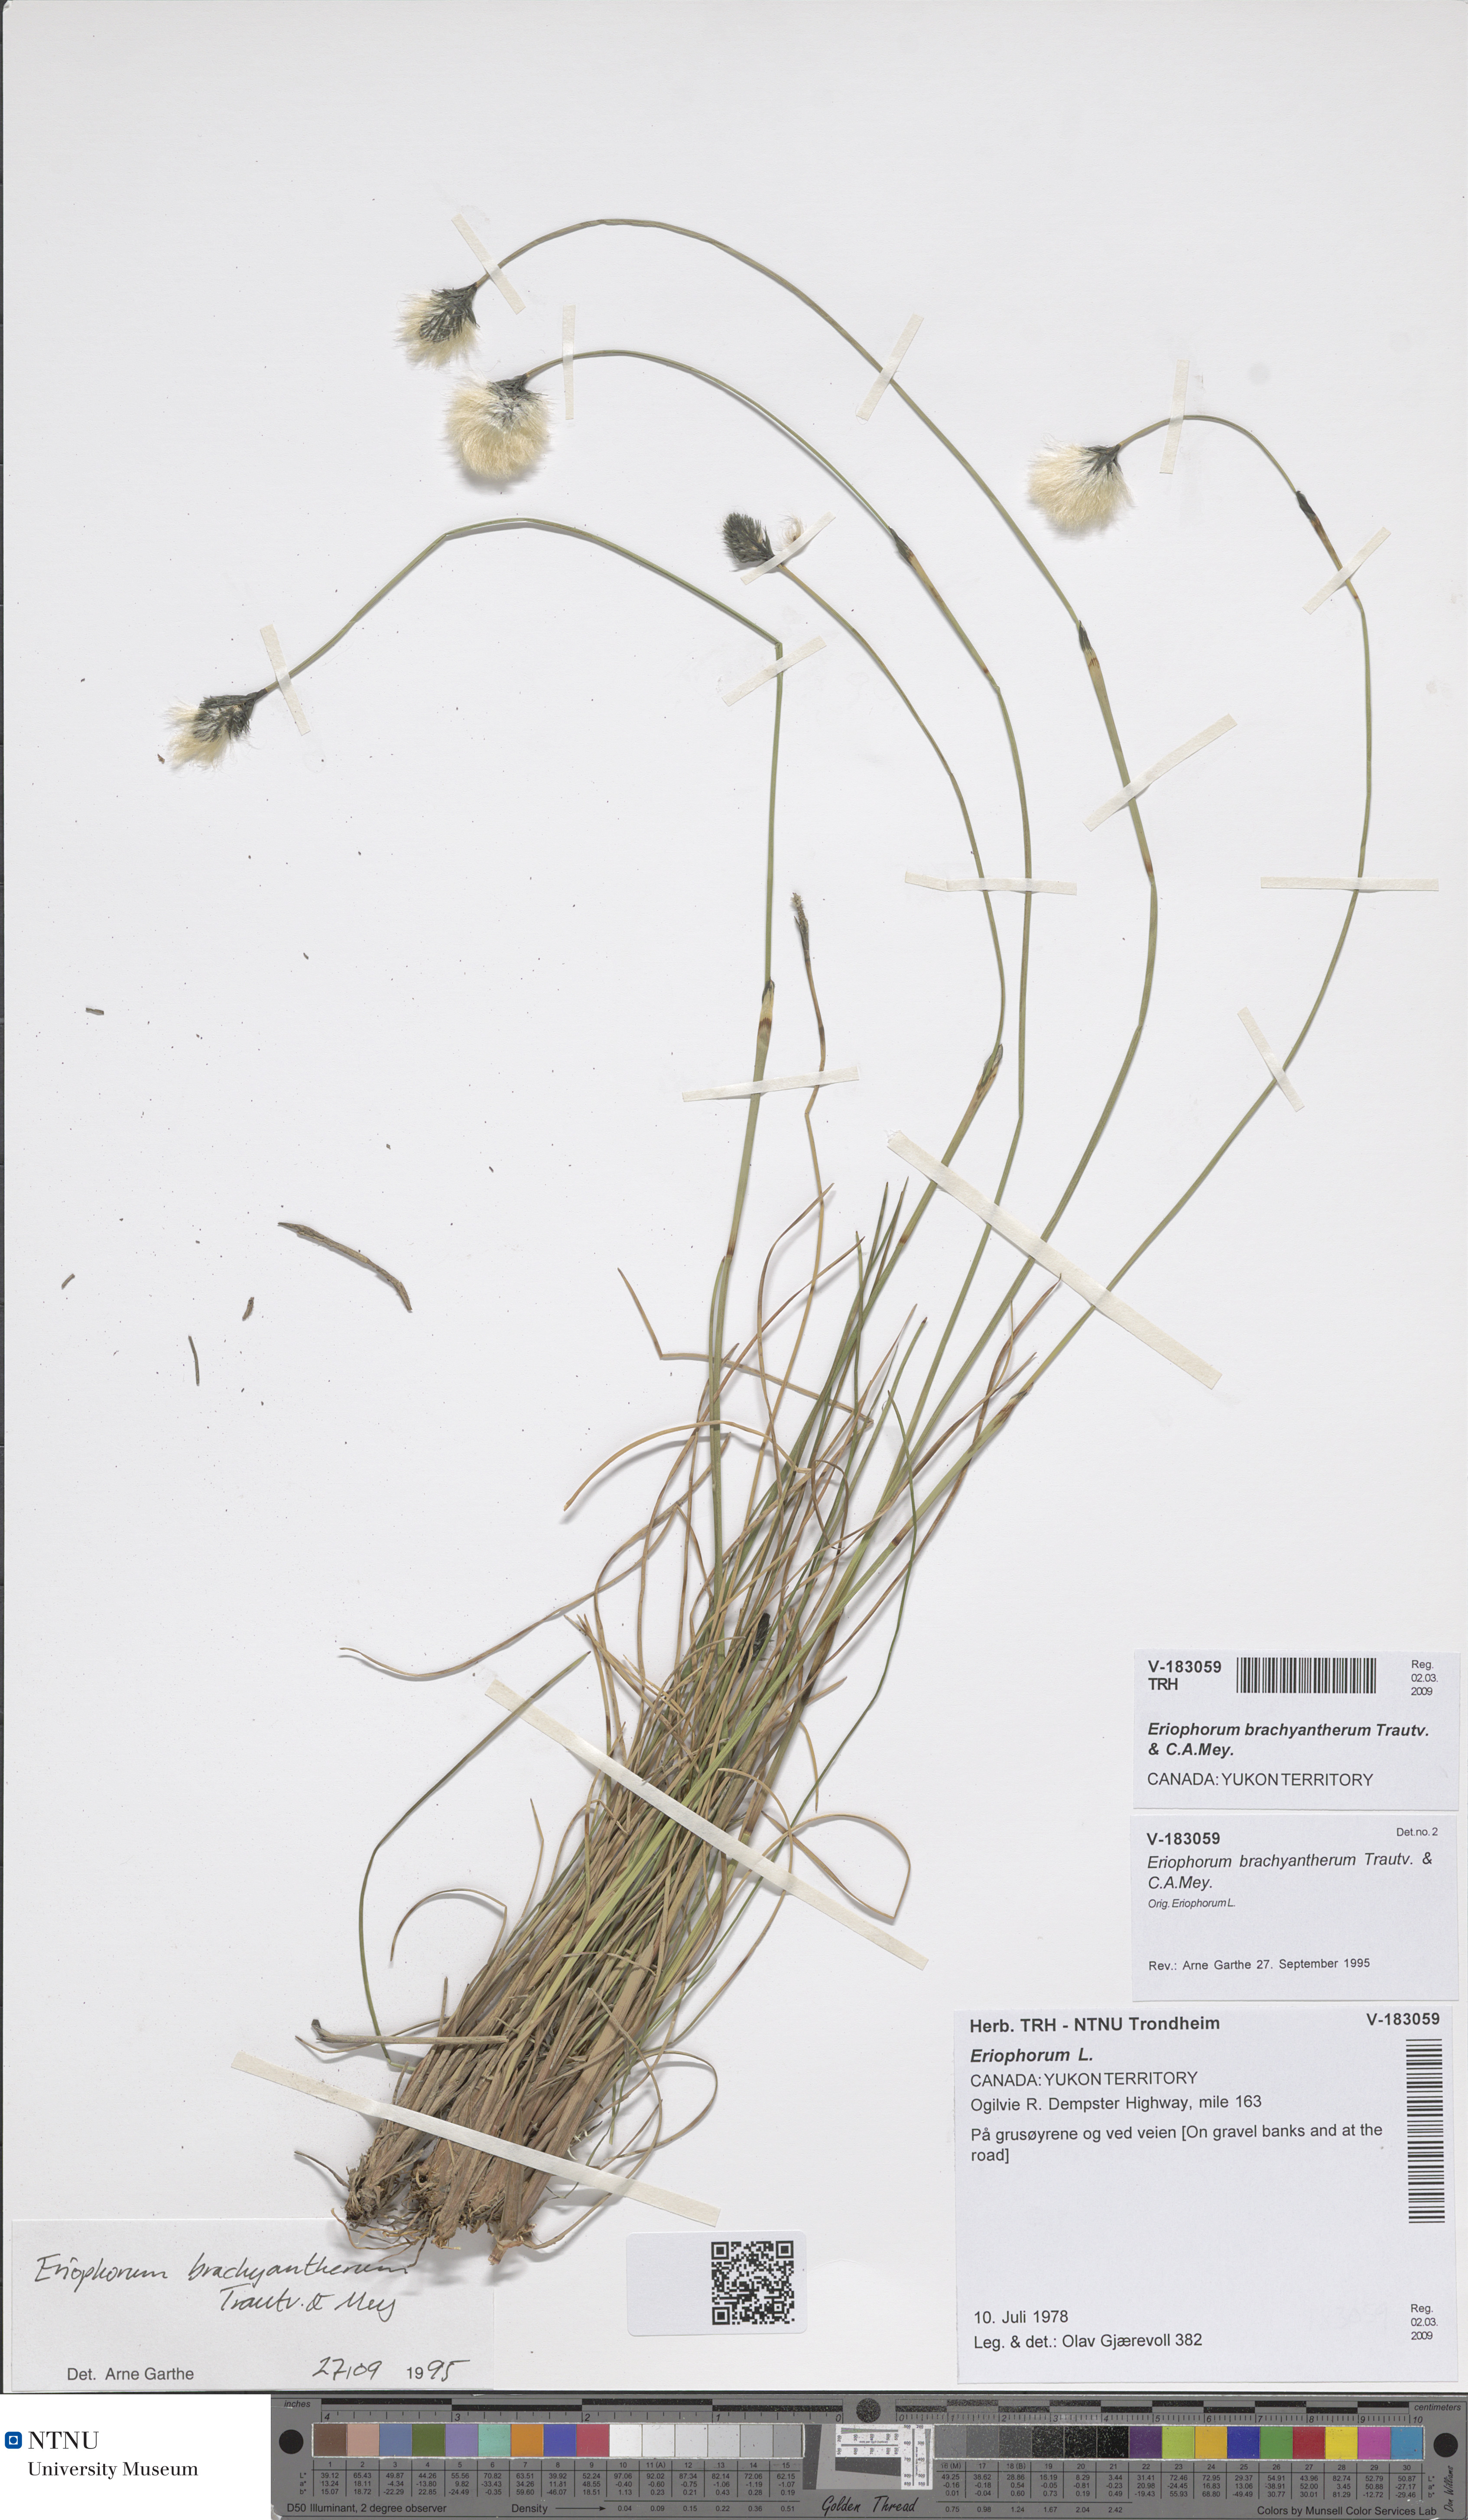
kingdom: Plantae
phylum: Tracheophyta
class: Liliopsida
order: Poales
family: Cyperaceae
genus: Eriophorum
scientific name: Eriophorum brachyantherum
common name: Closed-sheathed cottongrass
